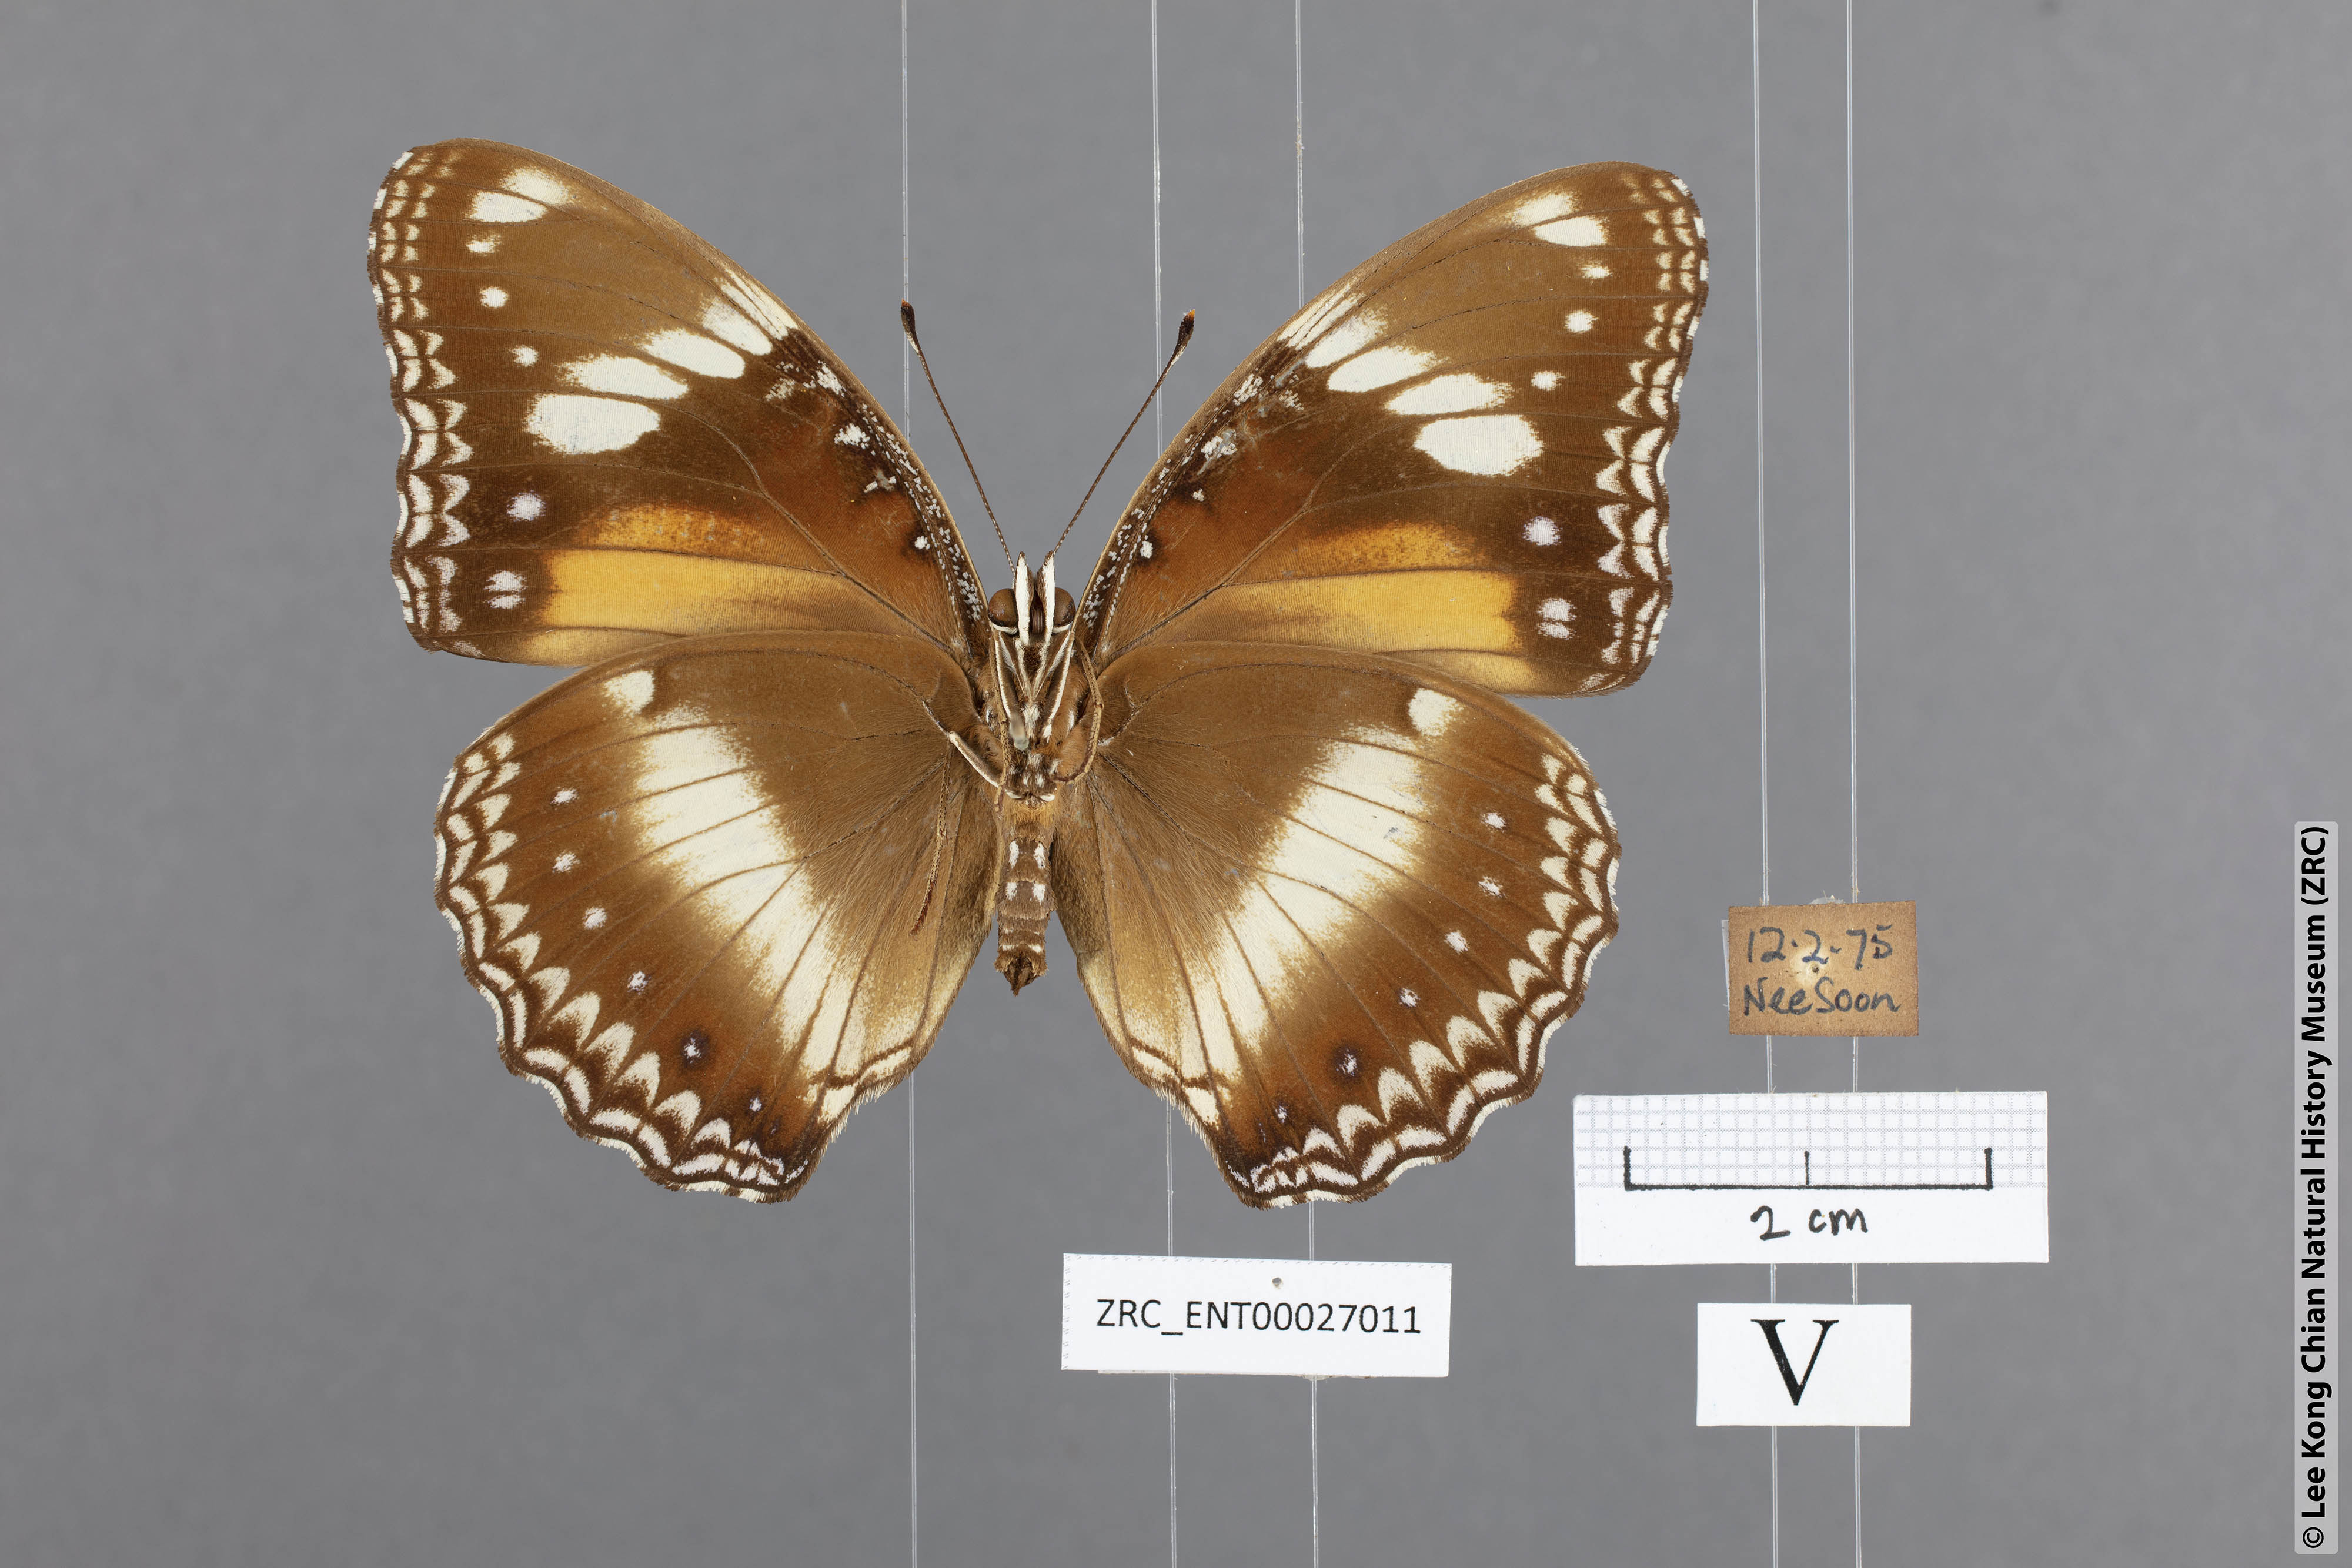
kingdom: Animalia
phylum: Arthropoda
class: Insecta
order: Lepidoptera
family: Nymphalidae
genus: Hypolimnas
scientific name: Hypolimnas bolina
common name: Great eggfly
